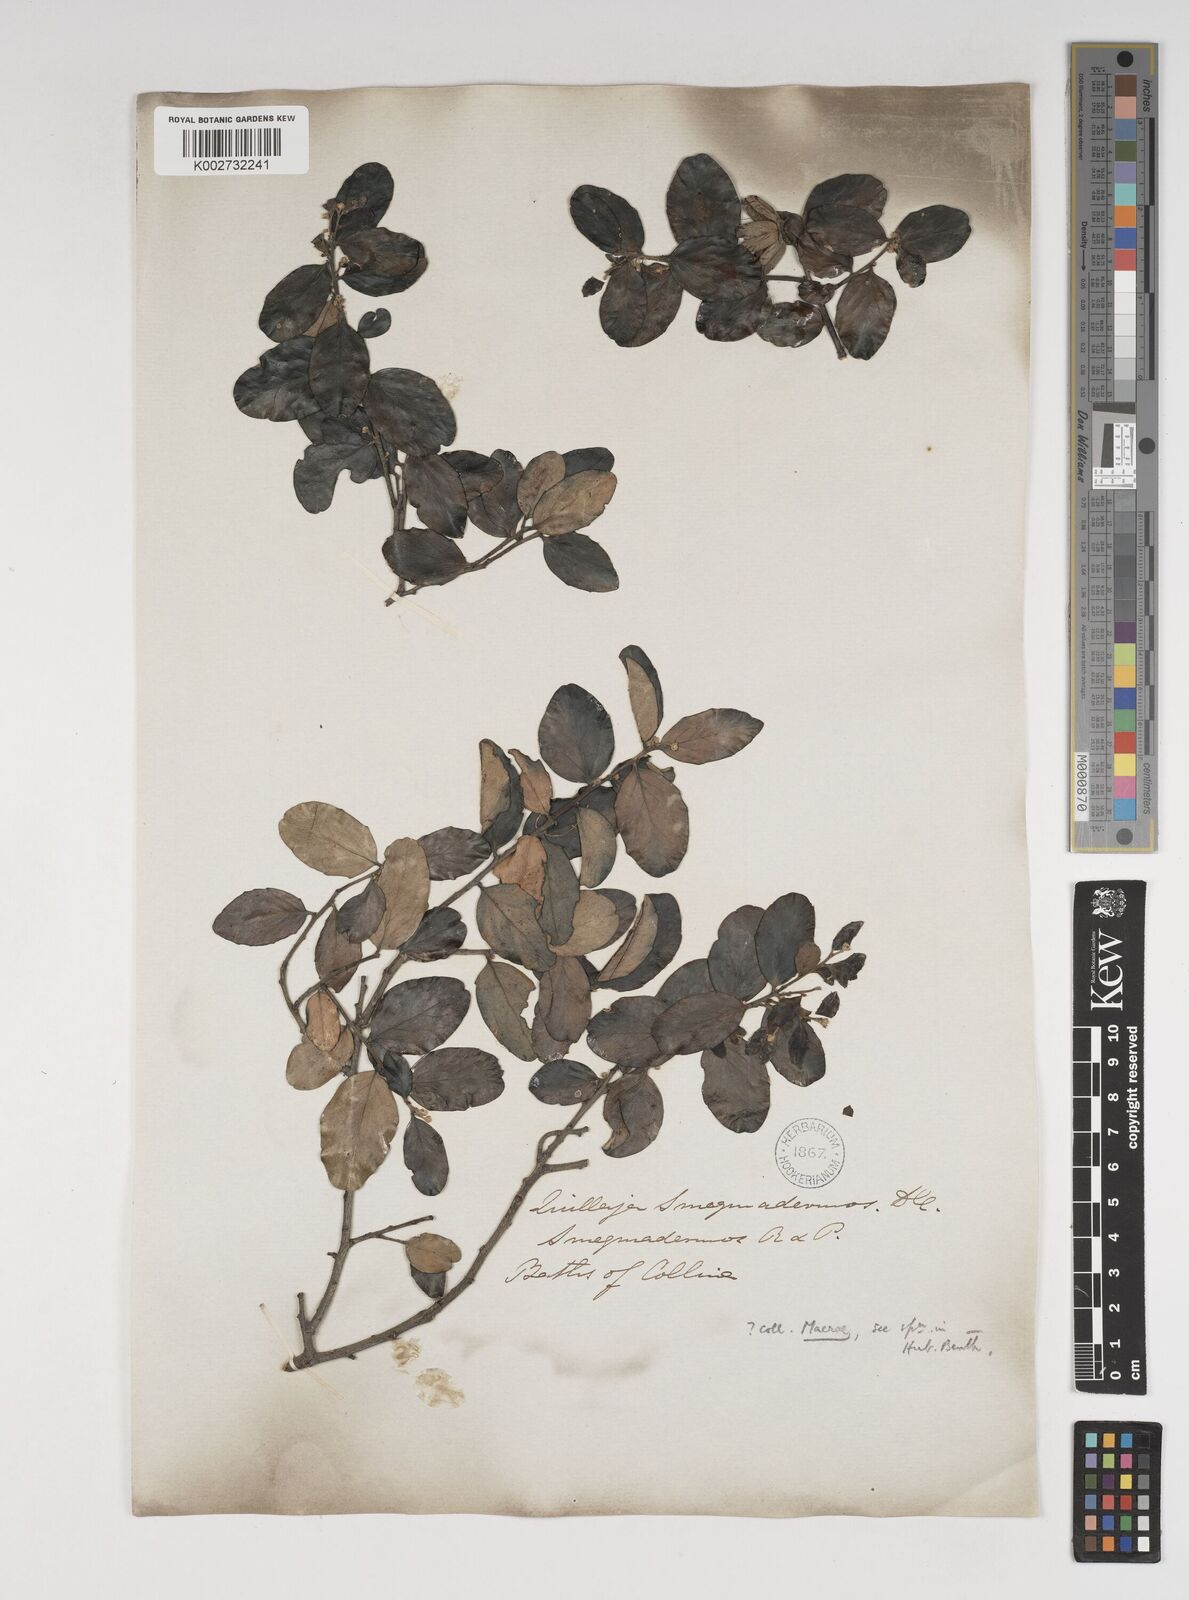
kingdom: Plantae
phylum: Tracheophyta
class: Magnoliopsida
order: Fabales
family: Quillajaceae
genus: Quillaja
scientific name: Quillaja saponaria
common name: Murillo's-bark
